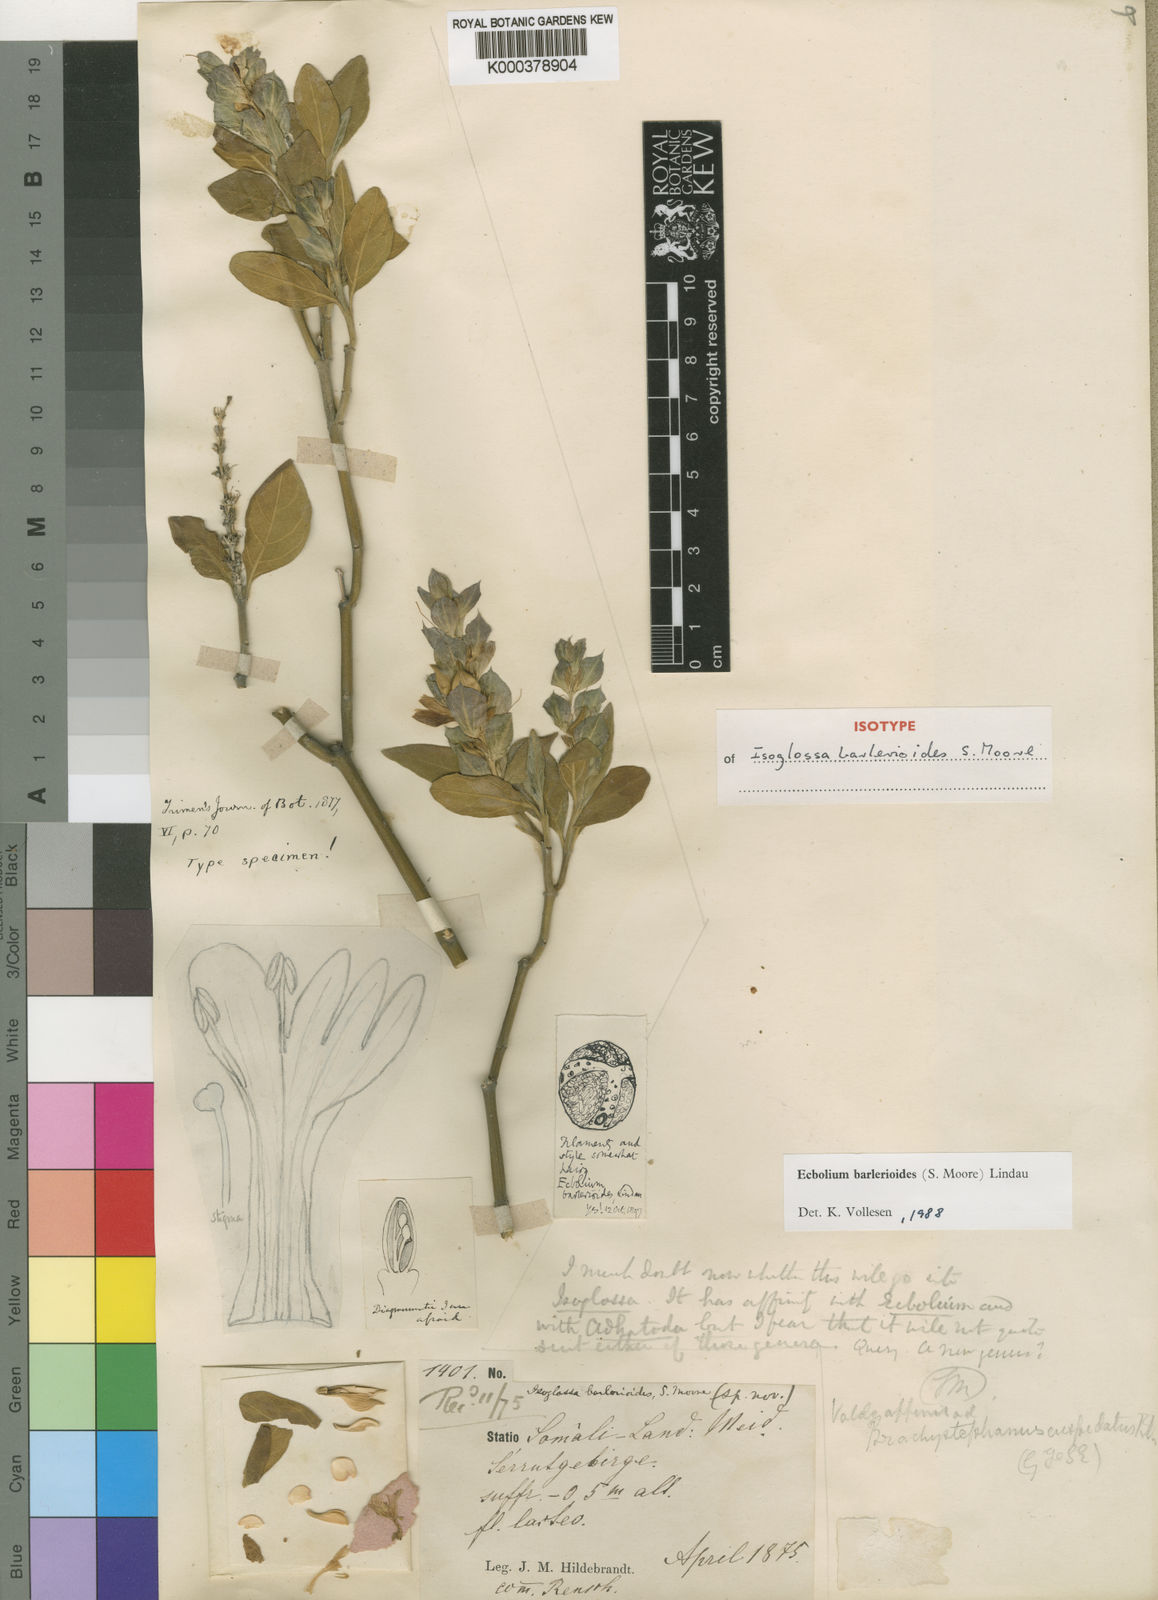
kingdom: Plantae
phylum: Tracheophyta
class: Magnoliopsida
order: Lamiales
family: Acanthaceae
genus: Ecbolium
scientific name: Ecbolium barlerioides
